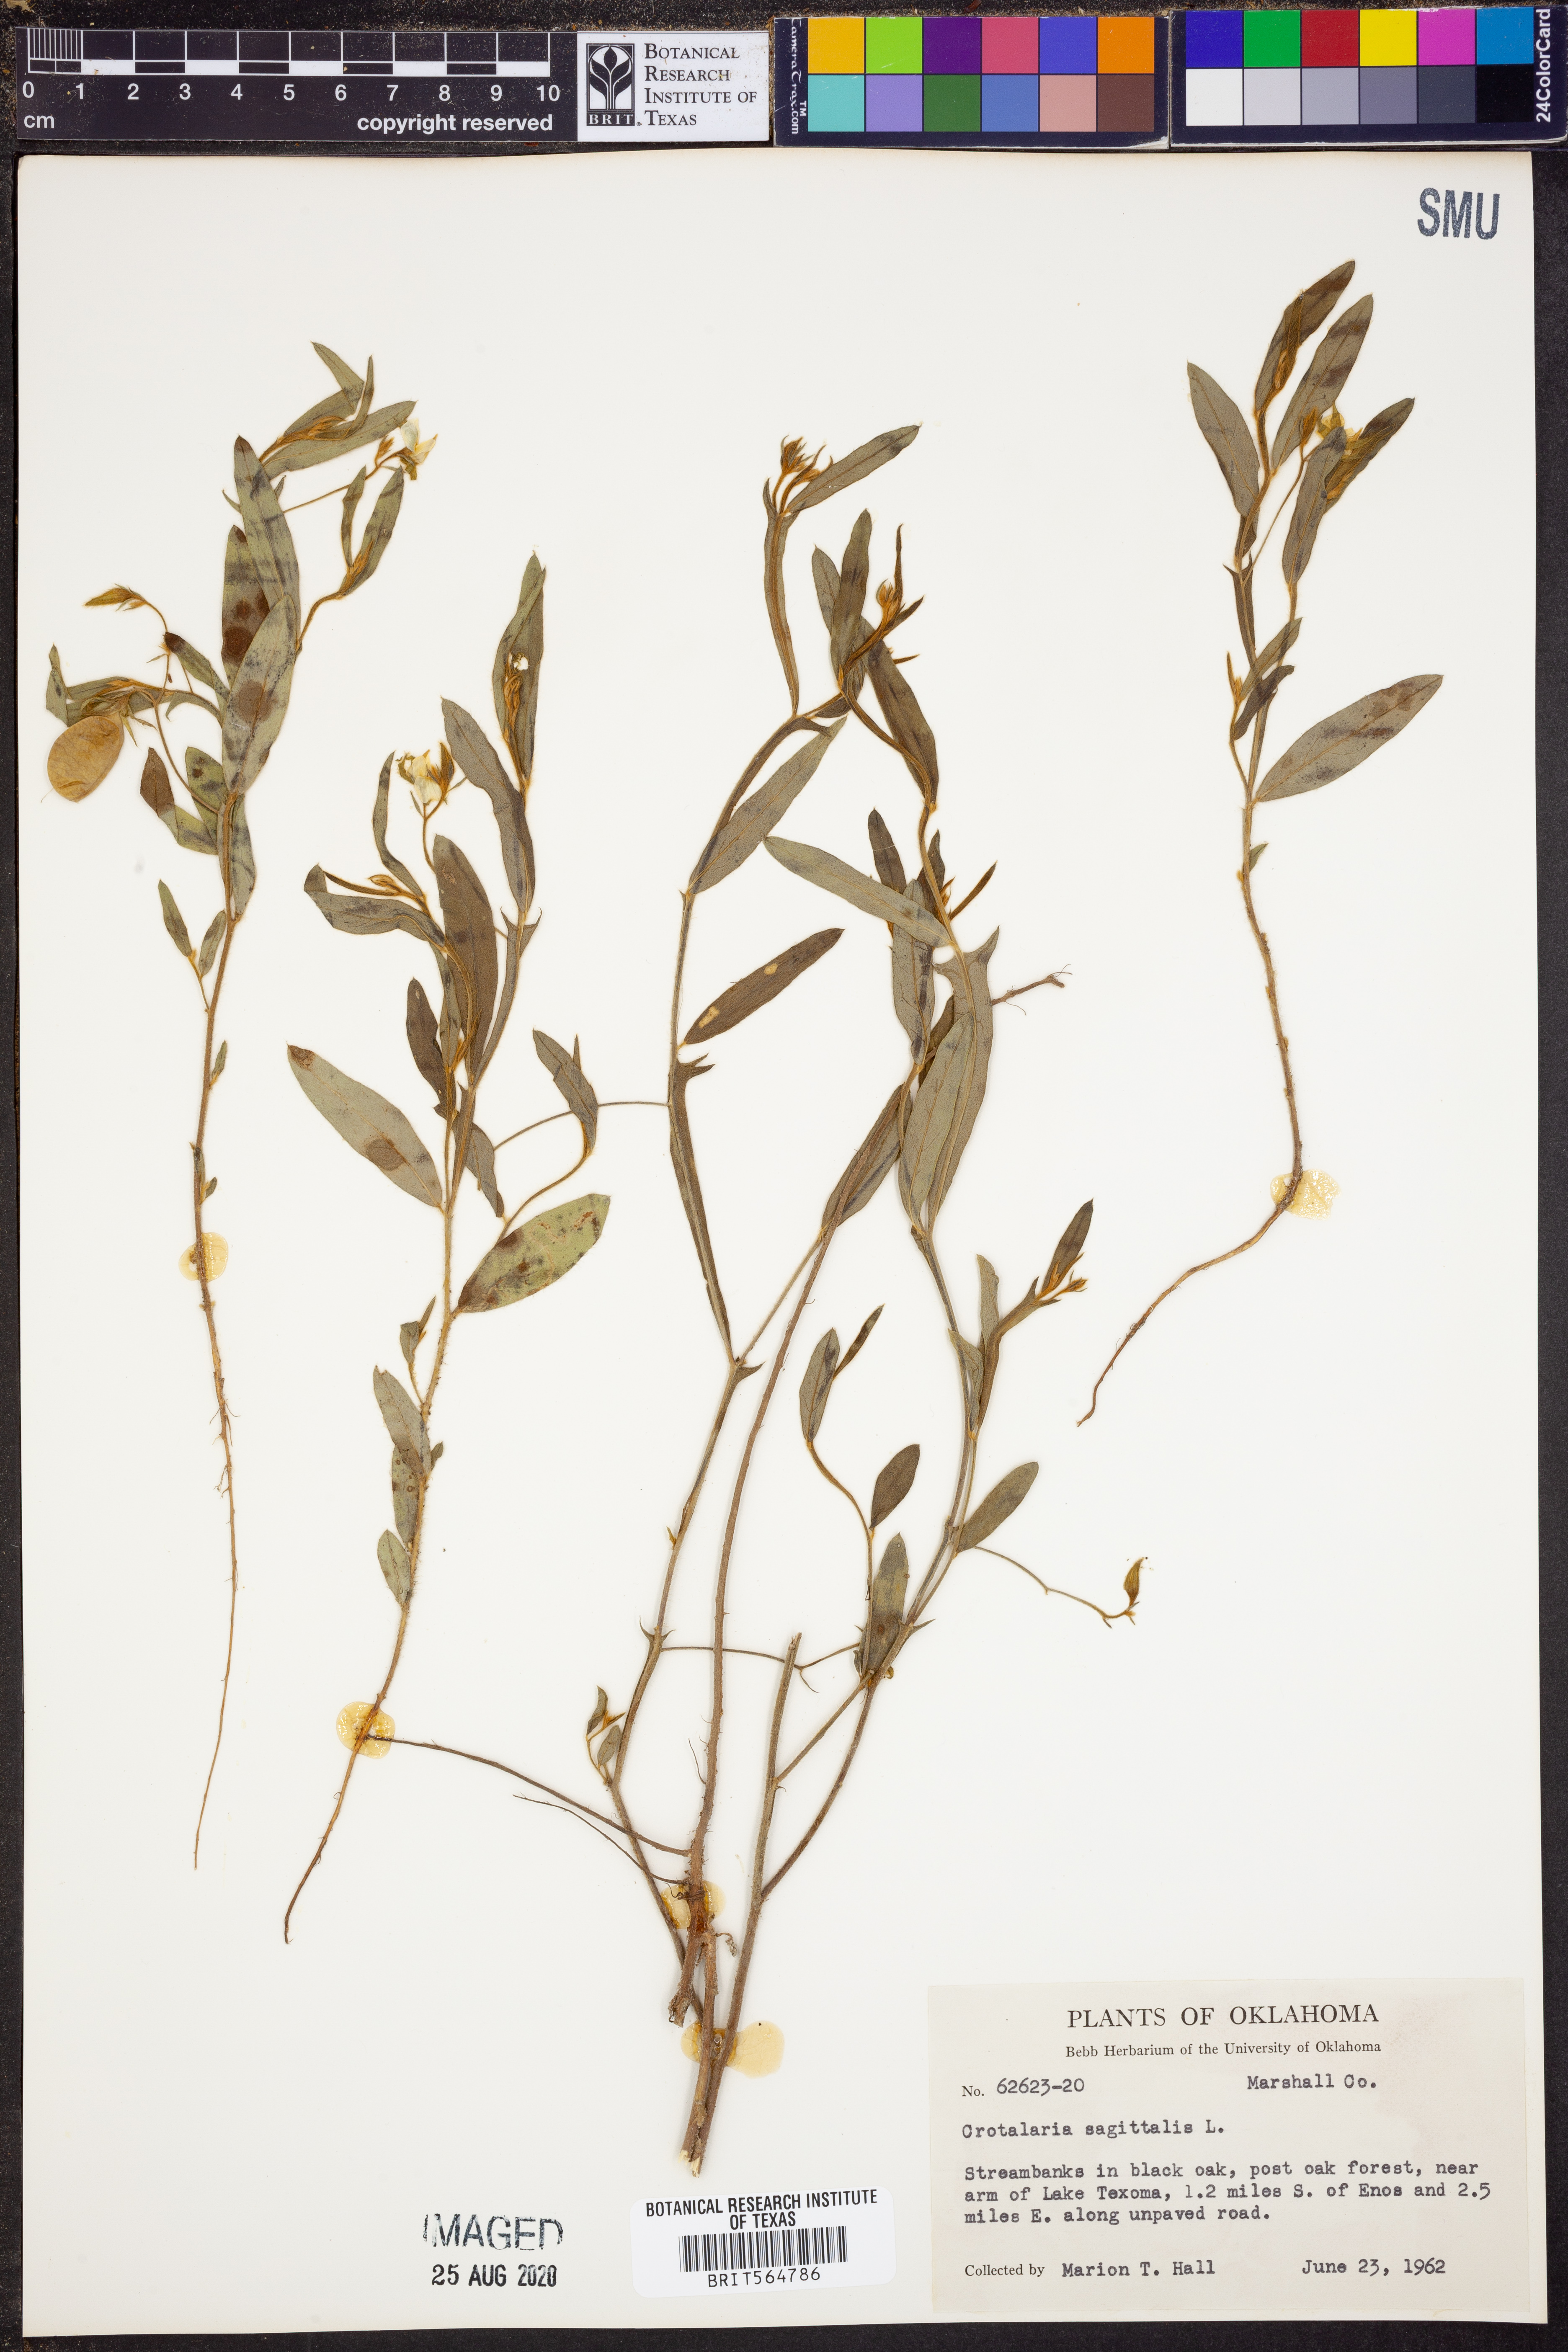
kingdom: Plantae
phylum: Tracheophyta
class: Magnoliopsida
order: Fabales
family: Fabaceae
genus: Crotalaria
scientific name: Crotalaria sagittalis
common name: Arrowhead rattlebox
